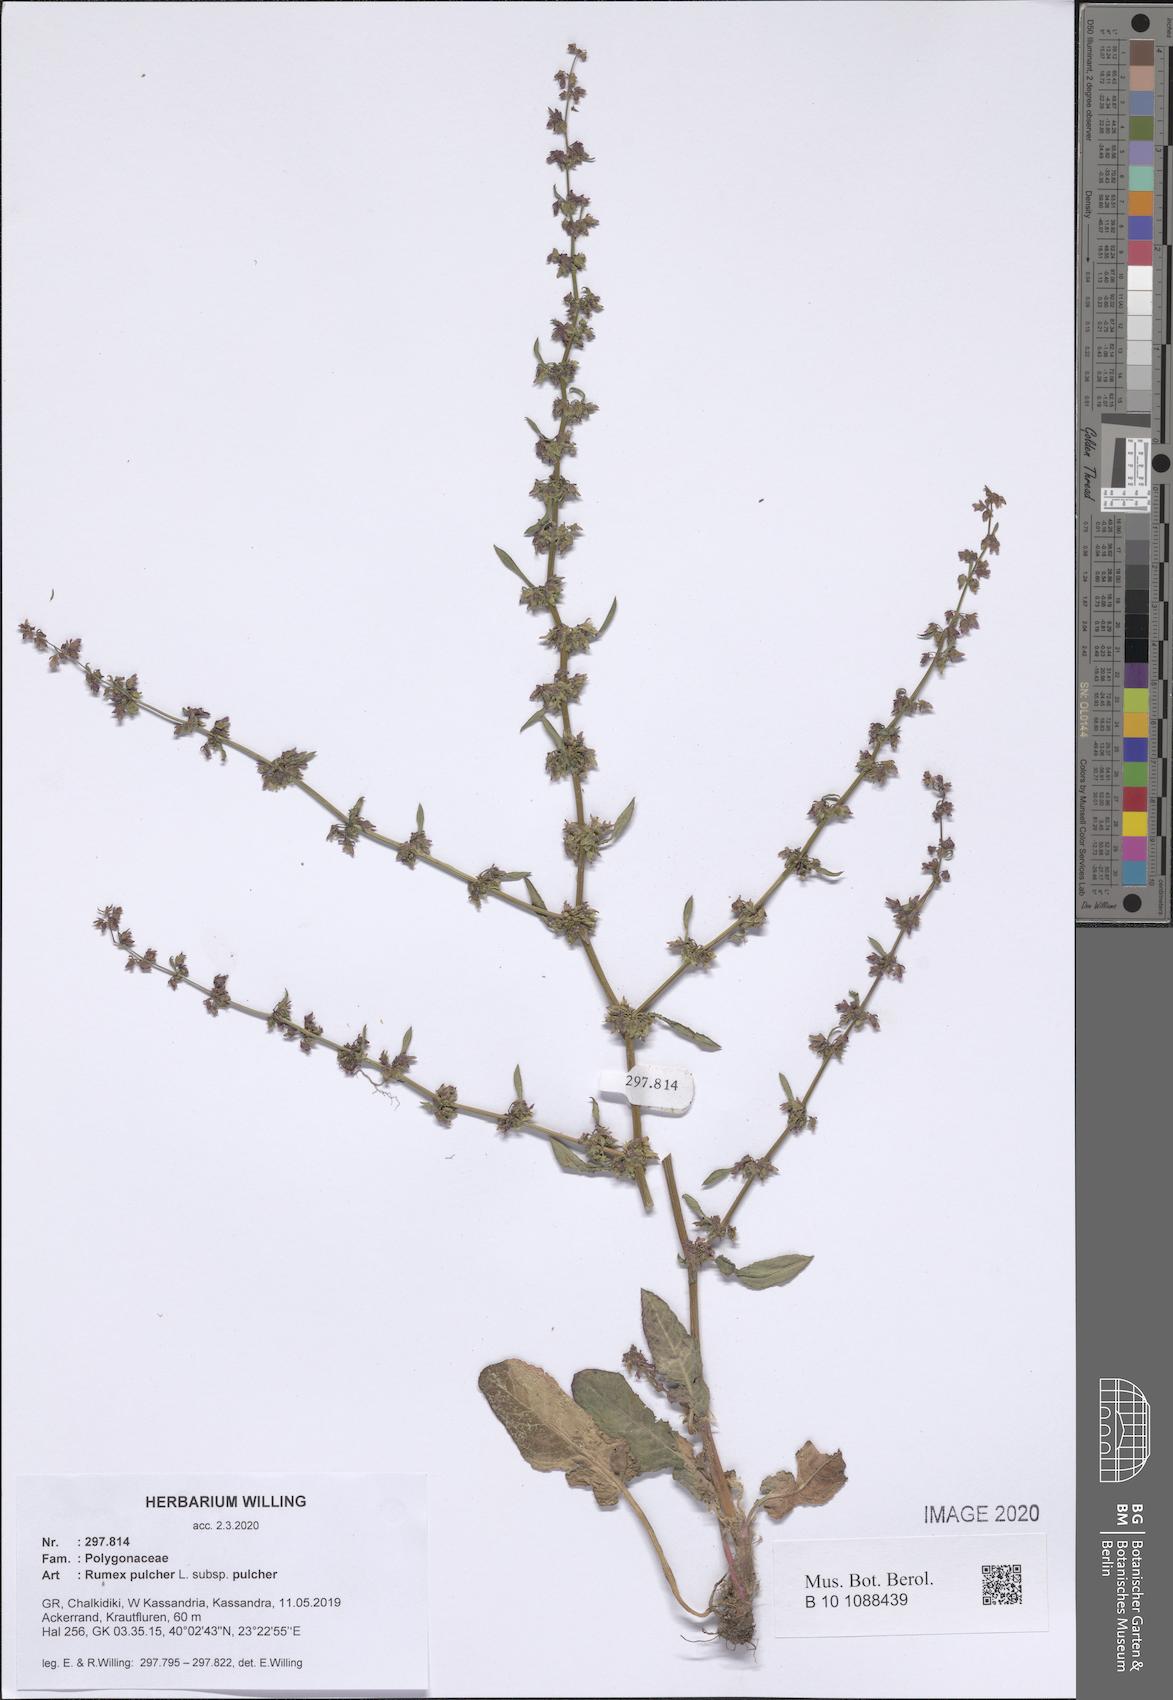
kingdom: Plantae
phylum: Tracheophyta
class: Magnoliopsida
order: Caryophyllales
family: Polygonaceae
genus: Rumex
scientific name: Rumex pulcher
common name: Fiddle dock
